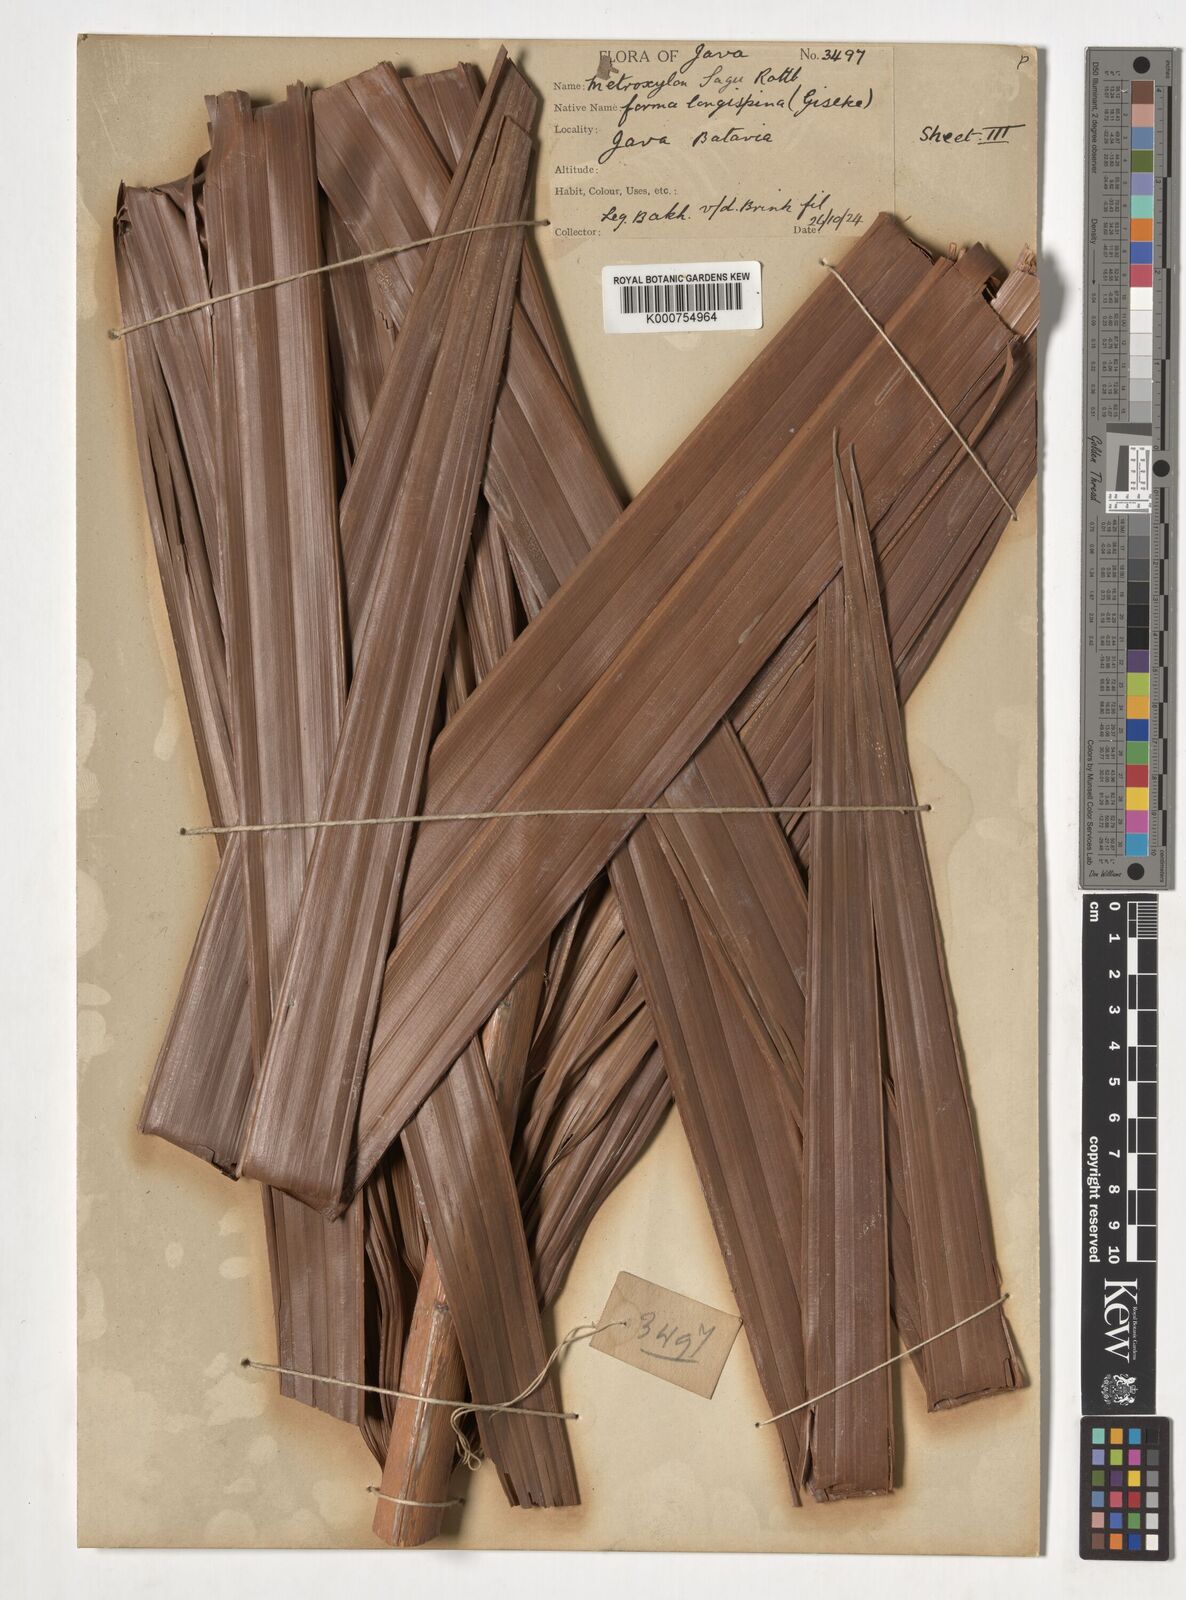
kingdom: Plantae
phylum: Tracheophyta
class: Liliopsida
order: Arecales
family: Arecaceae
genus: Metroxylon
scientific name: Metroxylon sagu
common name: Sago palm
